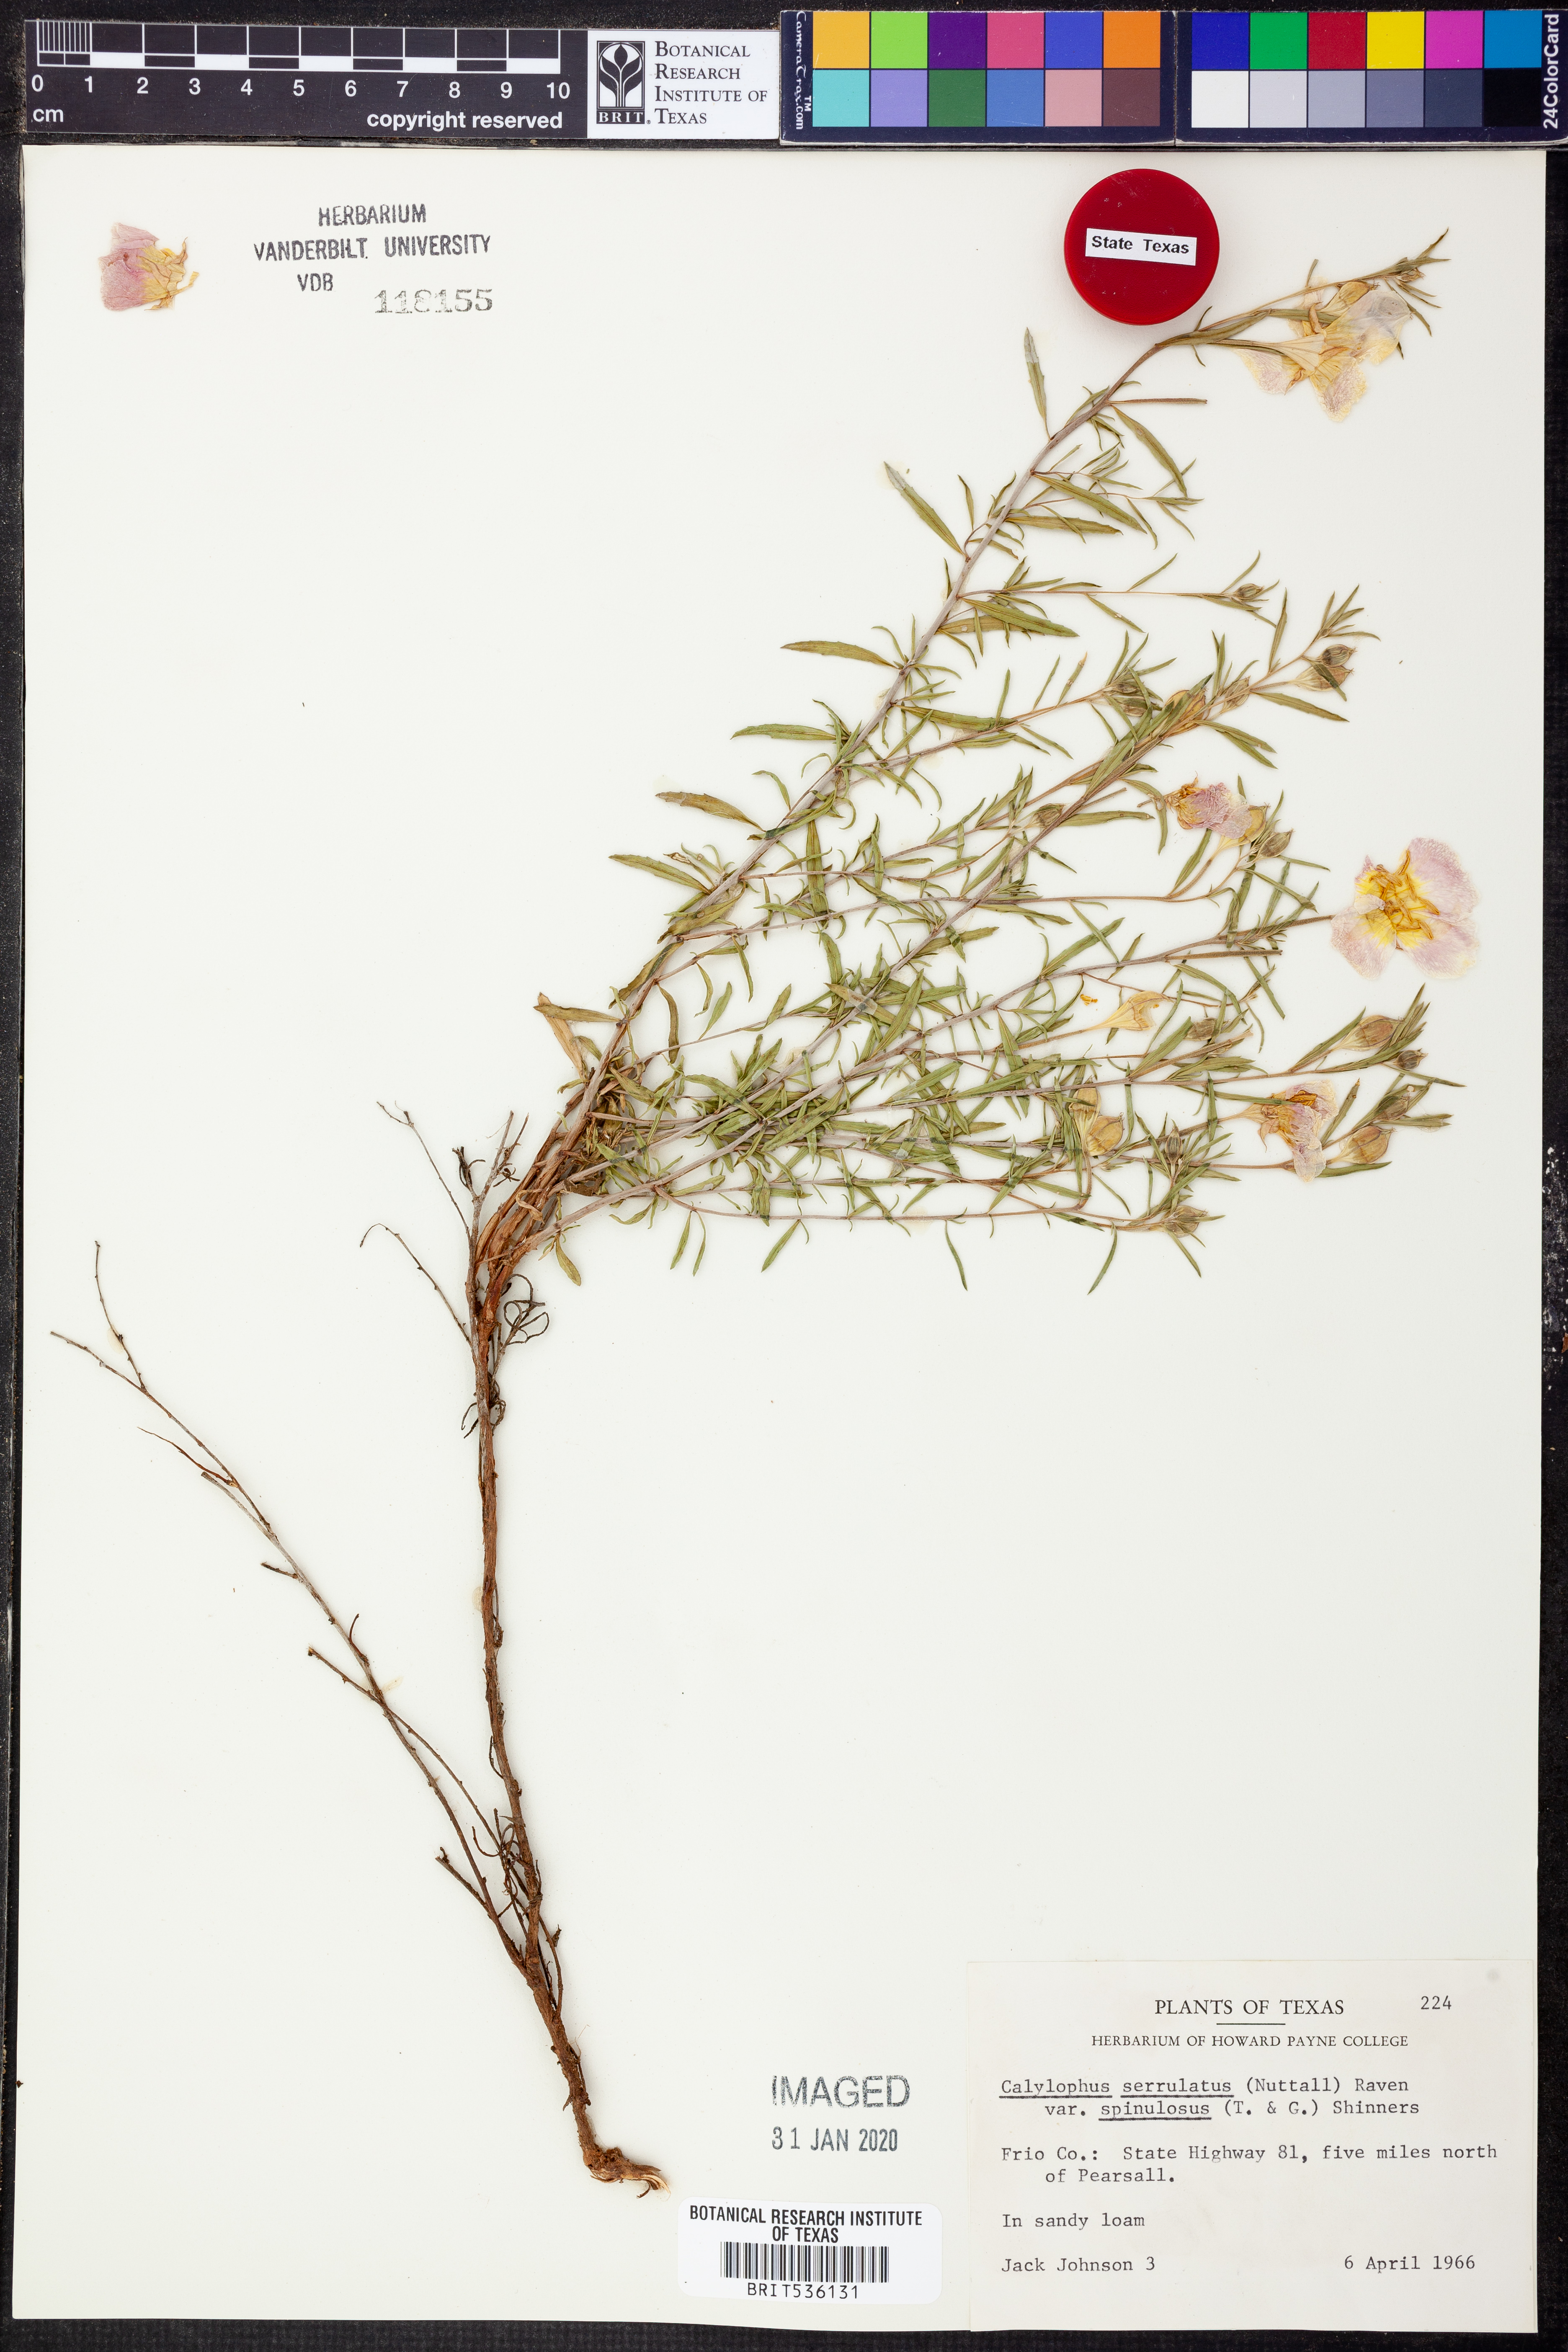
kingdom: Plantae
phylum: Tracheophyta
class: Magnoliopsida
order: Myrtales
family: Onagraceae
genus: Oenothera
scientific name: Oenothera serrulata
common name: Half-shrub calylophus
